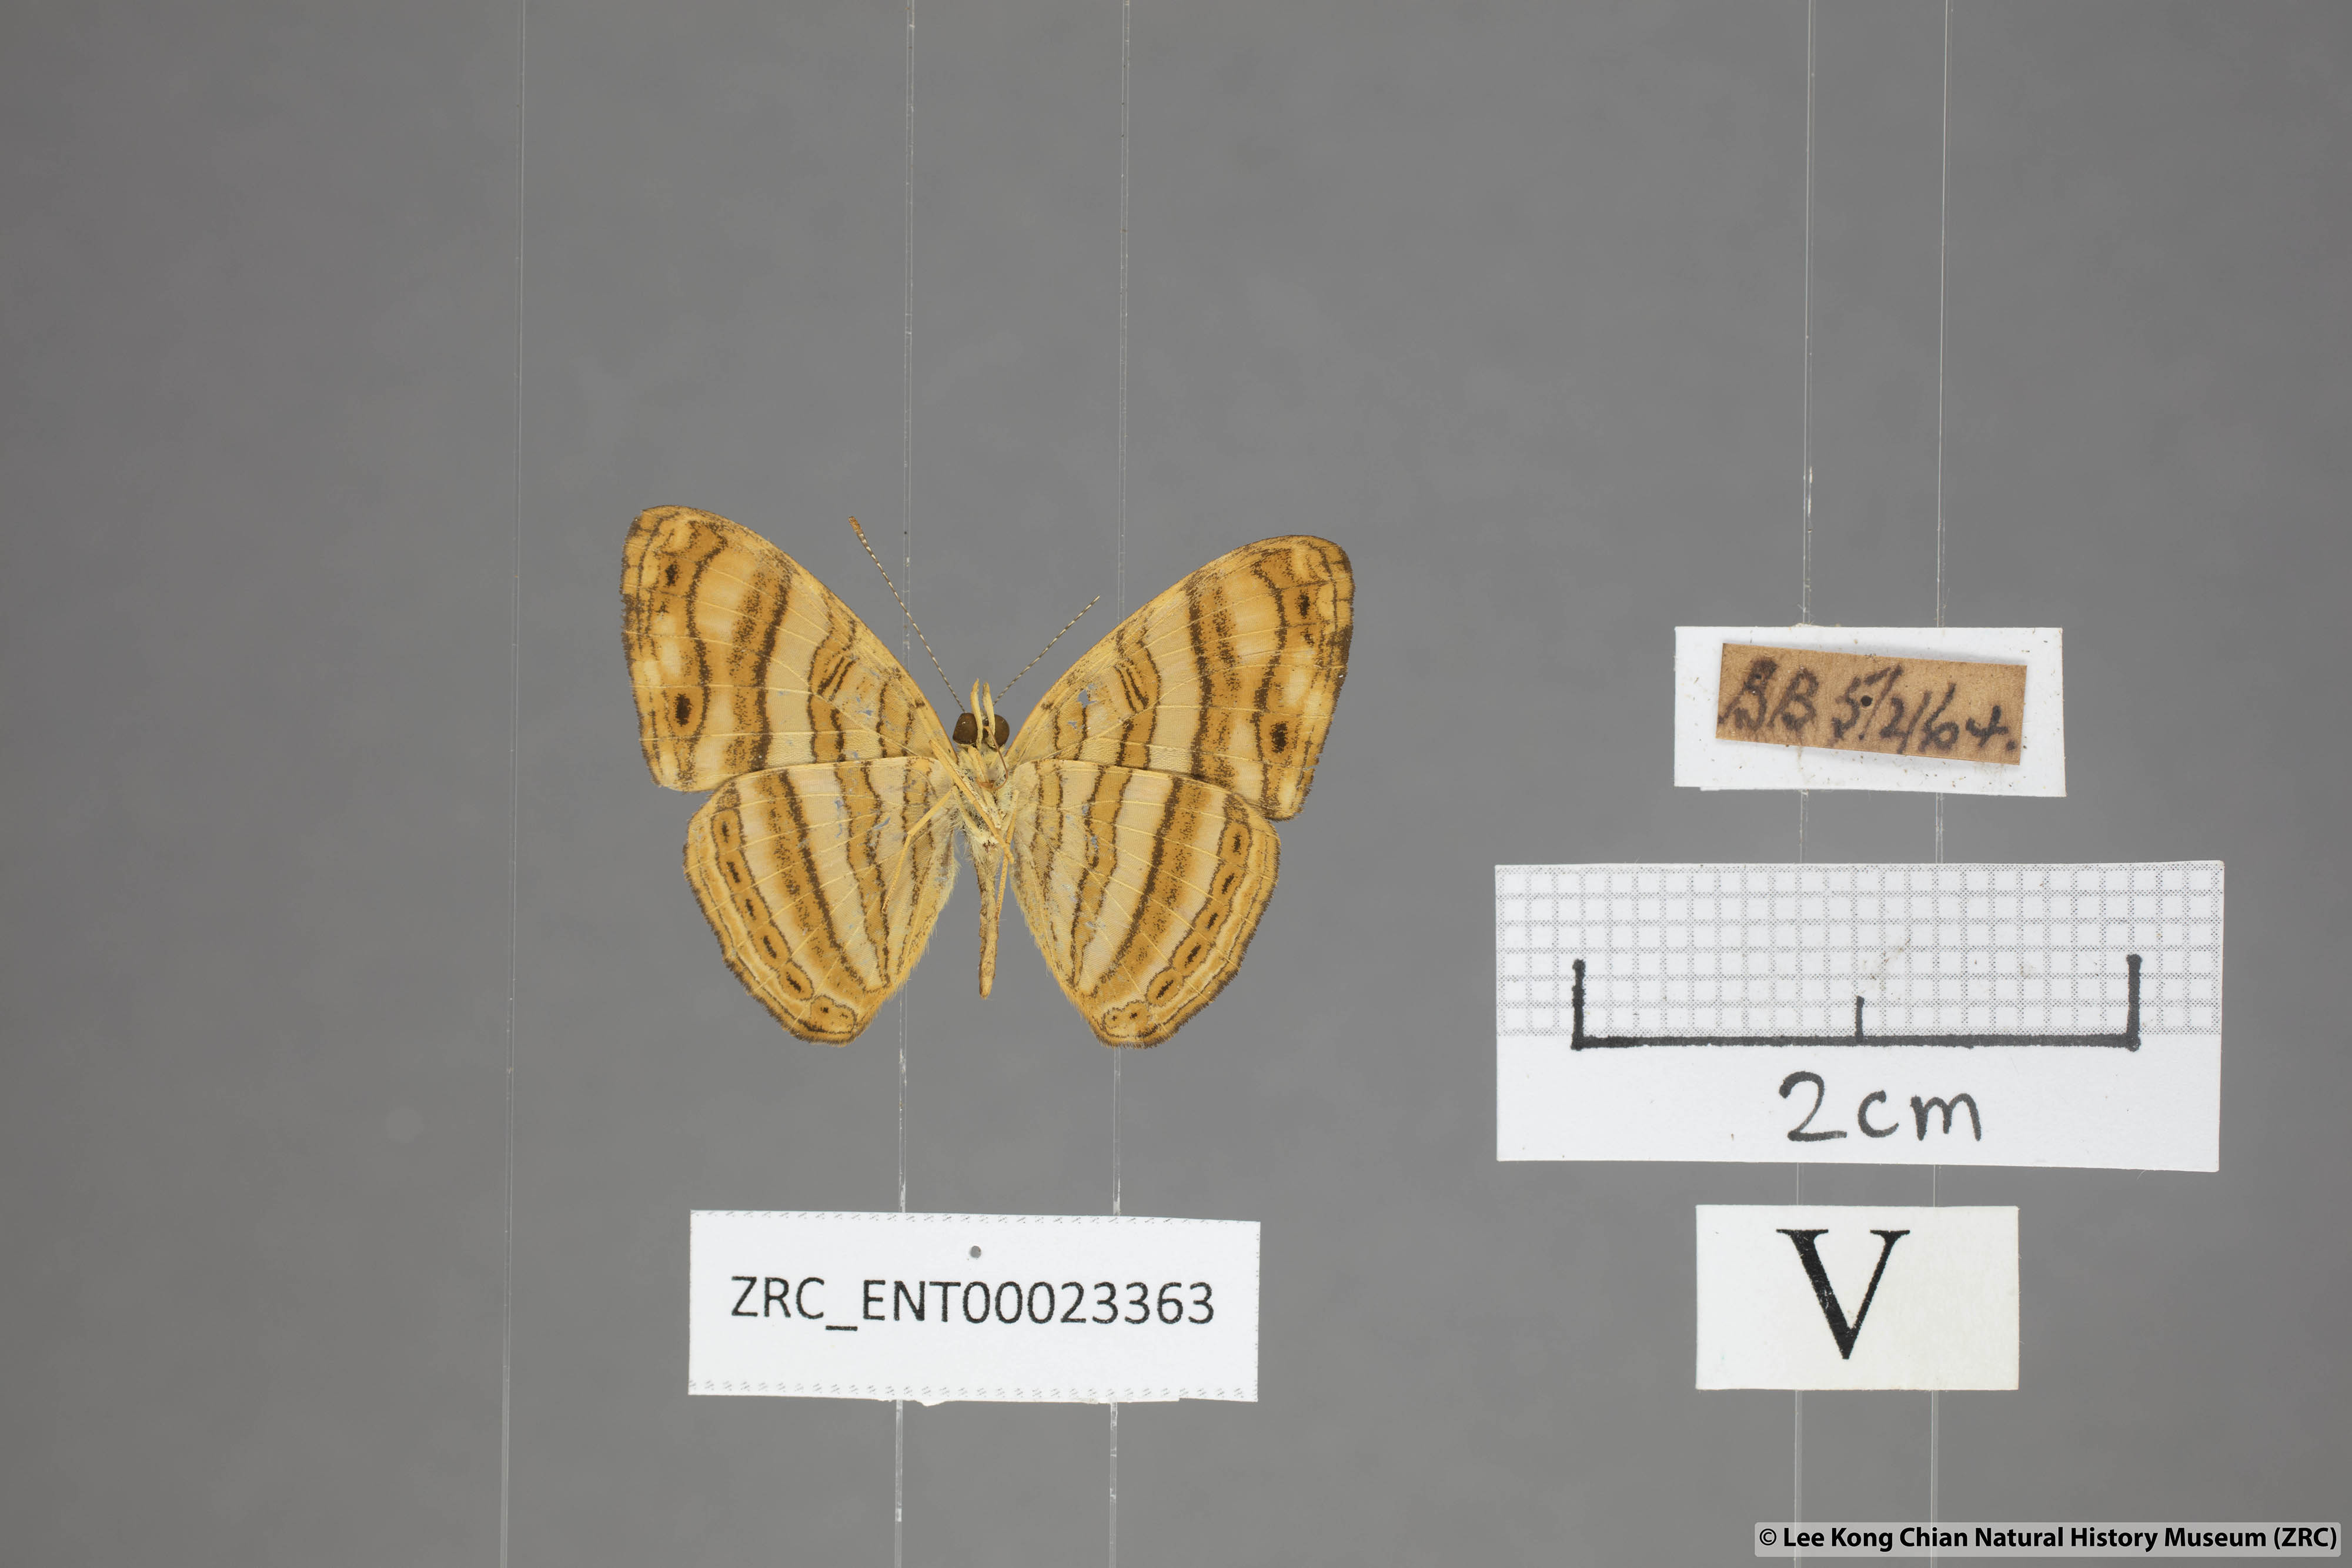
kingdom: Animalia
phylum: Arthropoda
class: Insecta
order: Lepidoptera
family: Nymphalidae
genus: Chersonesia
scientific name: Chersonesia peraka
